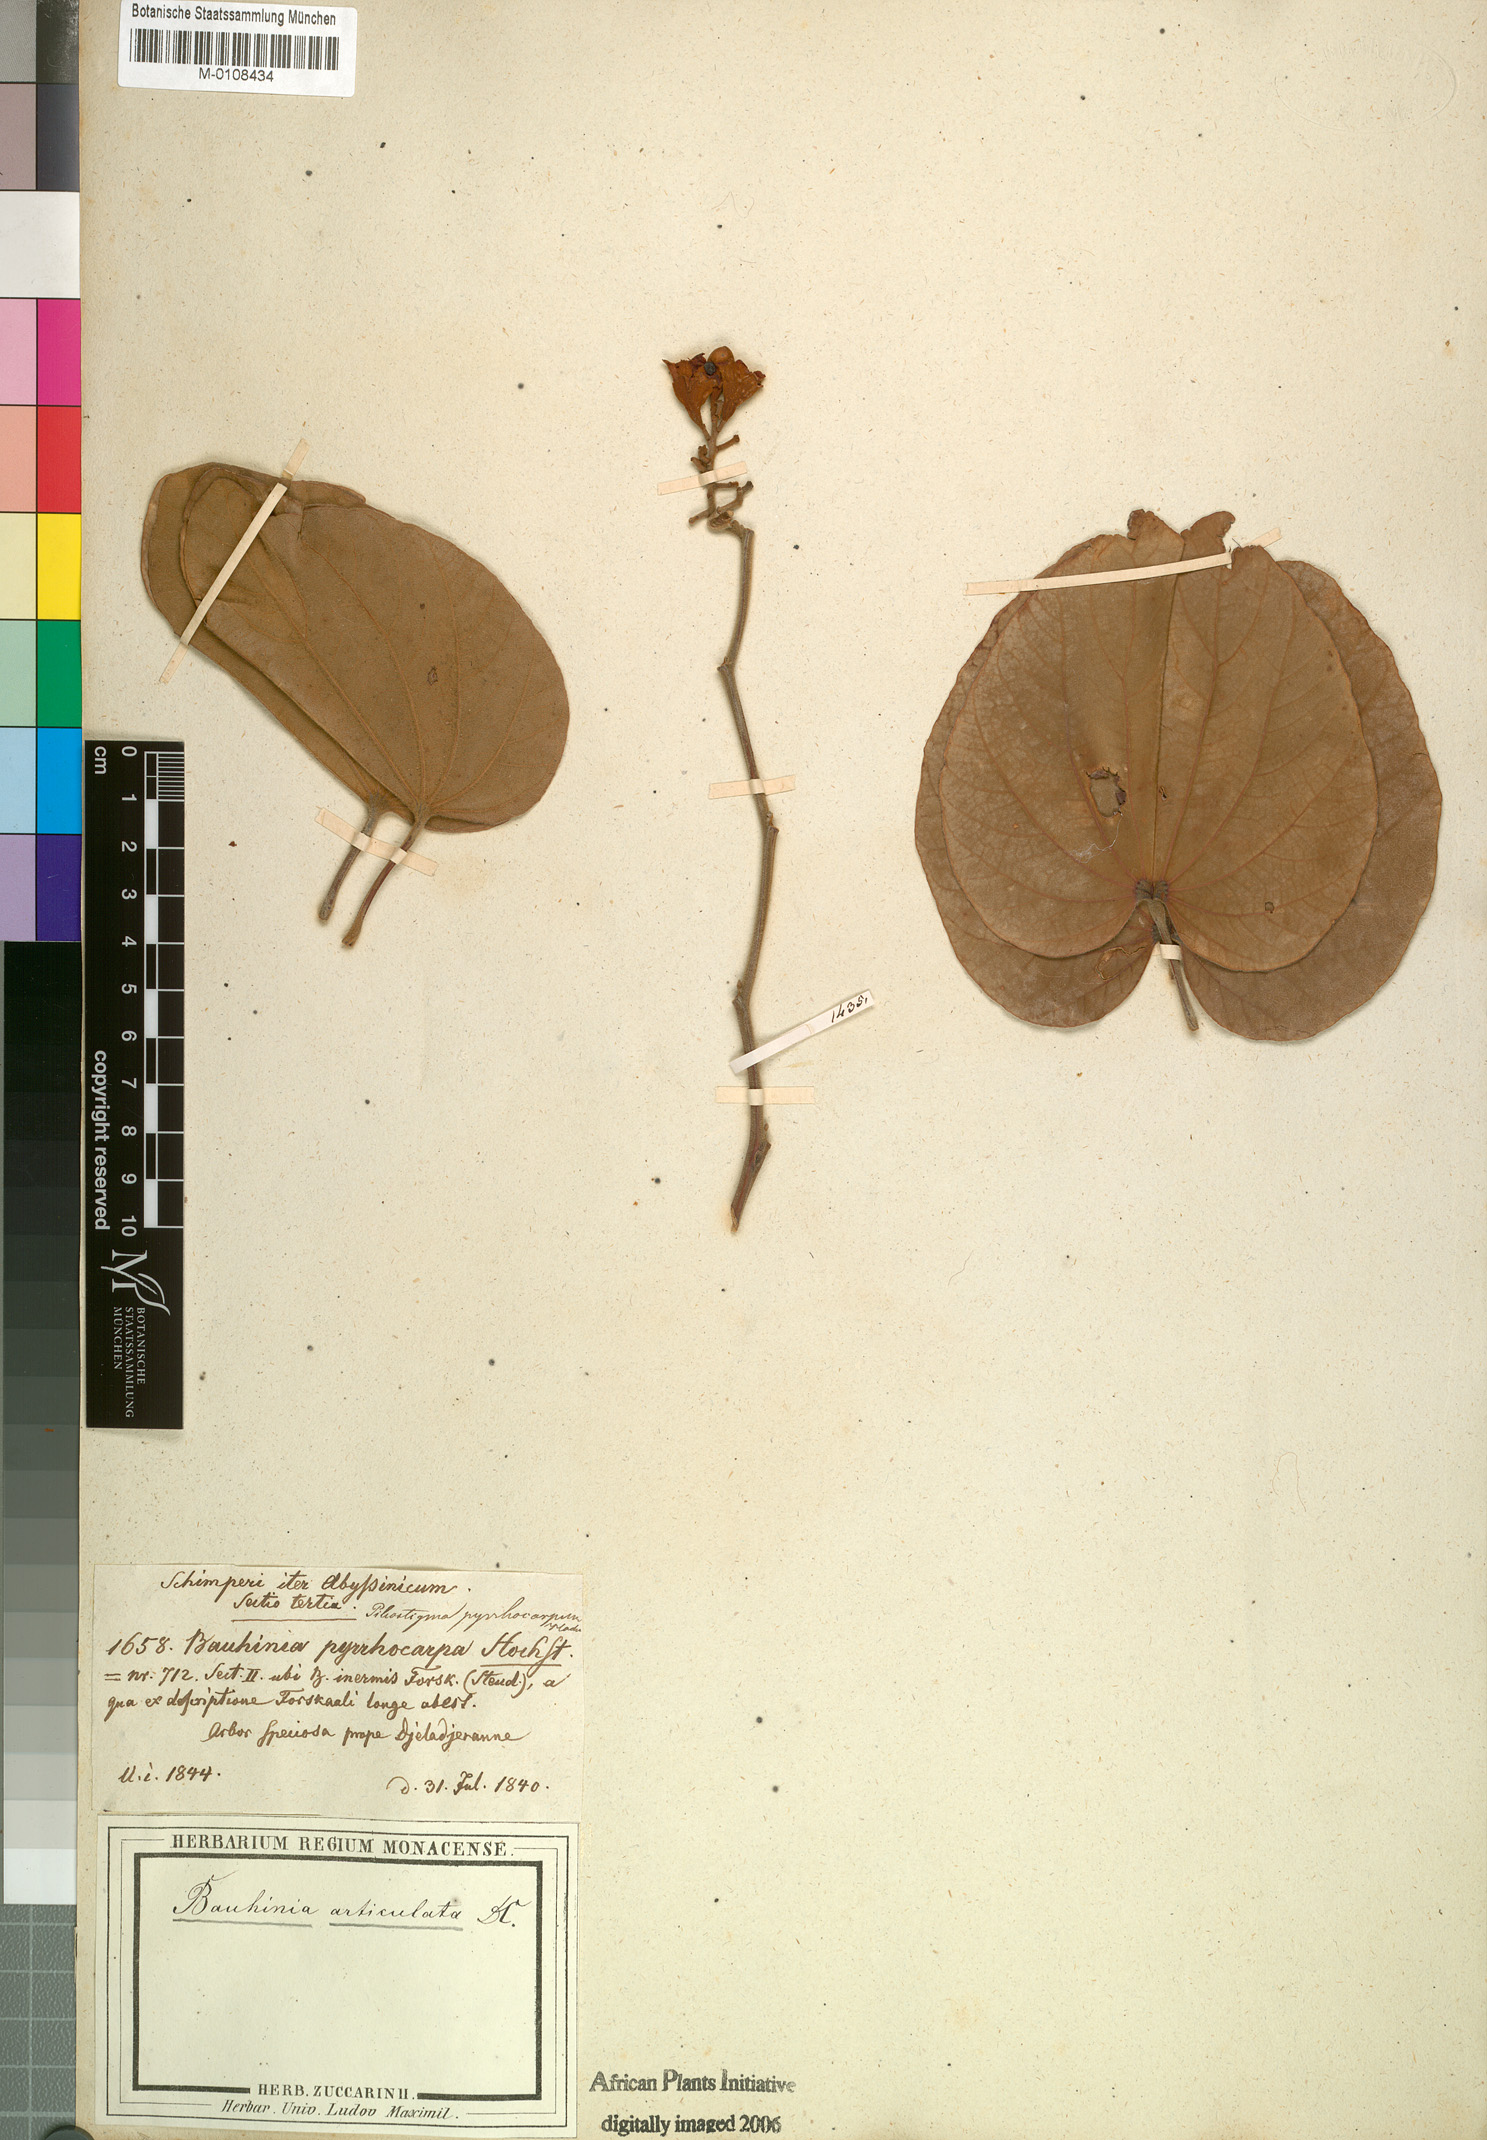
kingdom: Plantae
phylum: Tracheophyta
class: Magnoliopsida
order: Fabales
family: Fabaceae
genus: Piliostigma
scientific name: Piliostigma thonningii
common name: Kao
